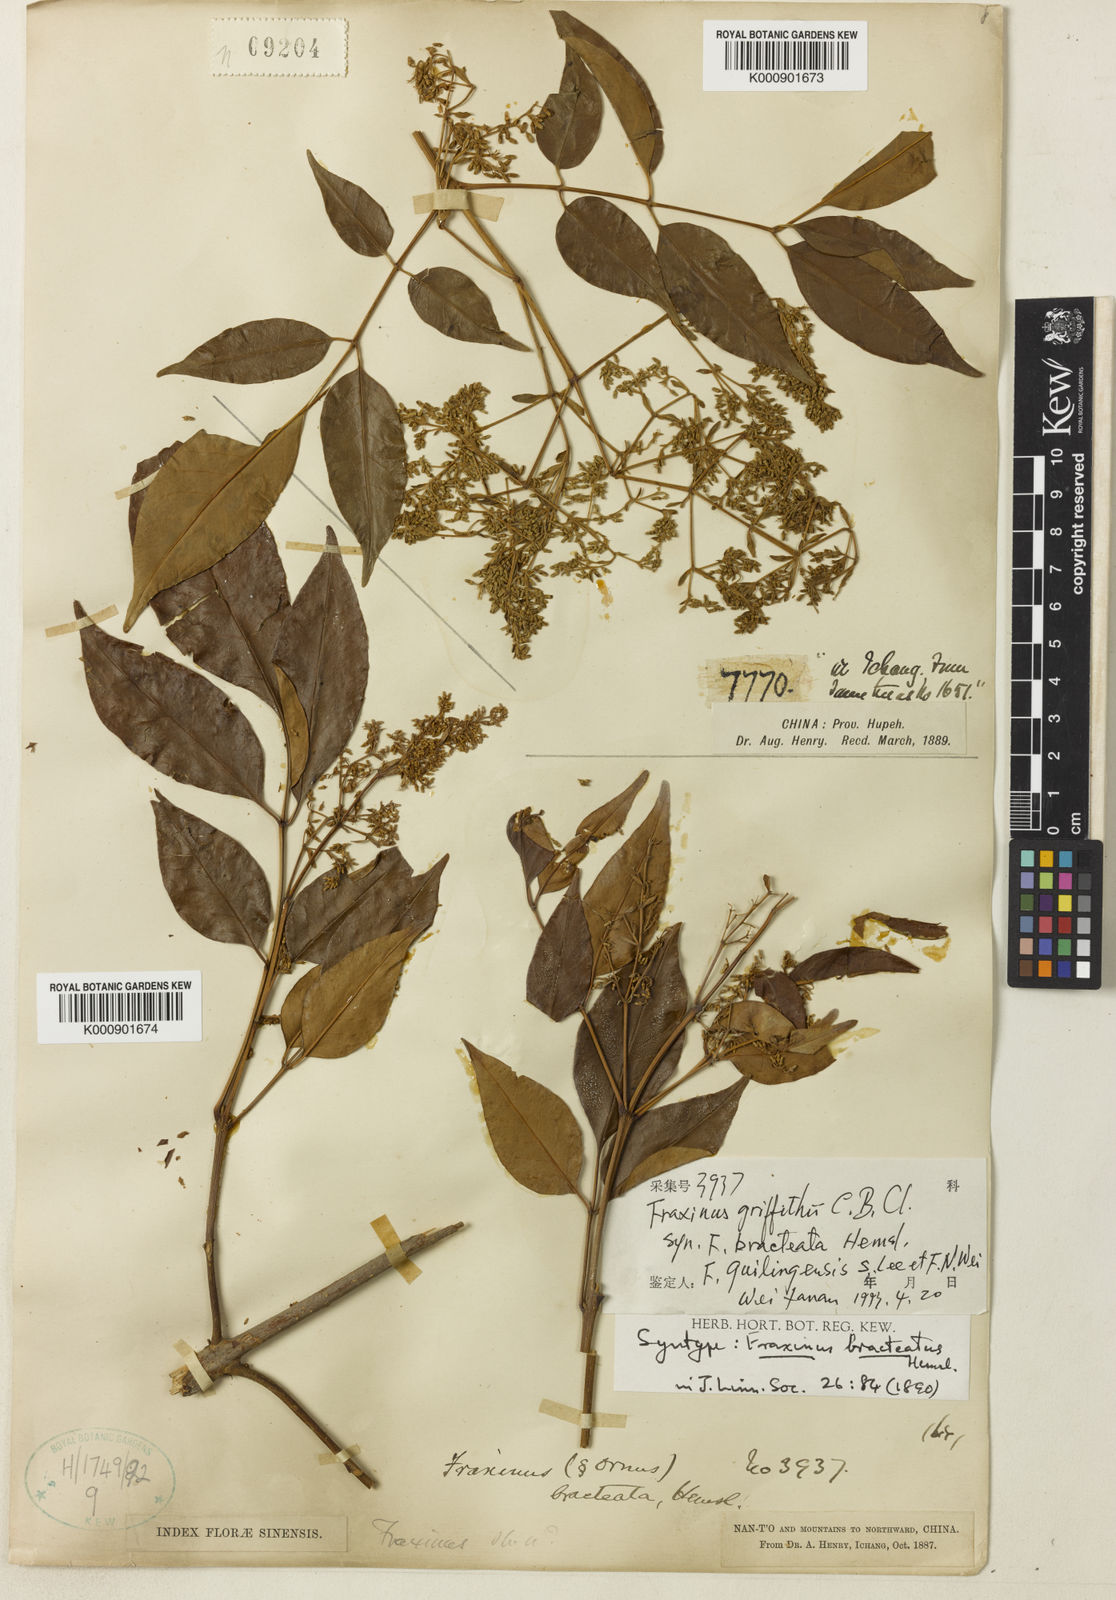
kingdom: Plantae
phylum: Tracheophyta
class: Magnoliopsida
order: Lamiales
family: Oleaceae
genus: Fraxinus
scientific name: Fraxinus griffithii
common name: Himalayan ash
